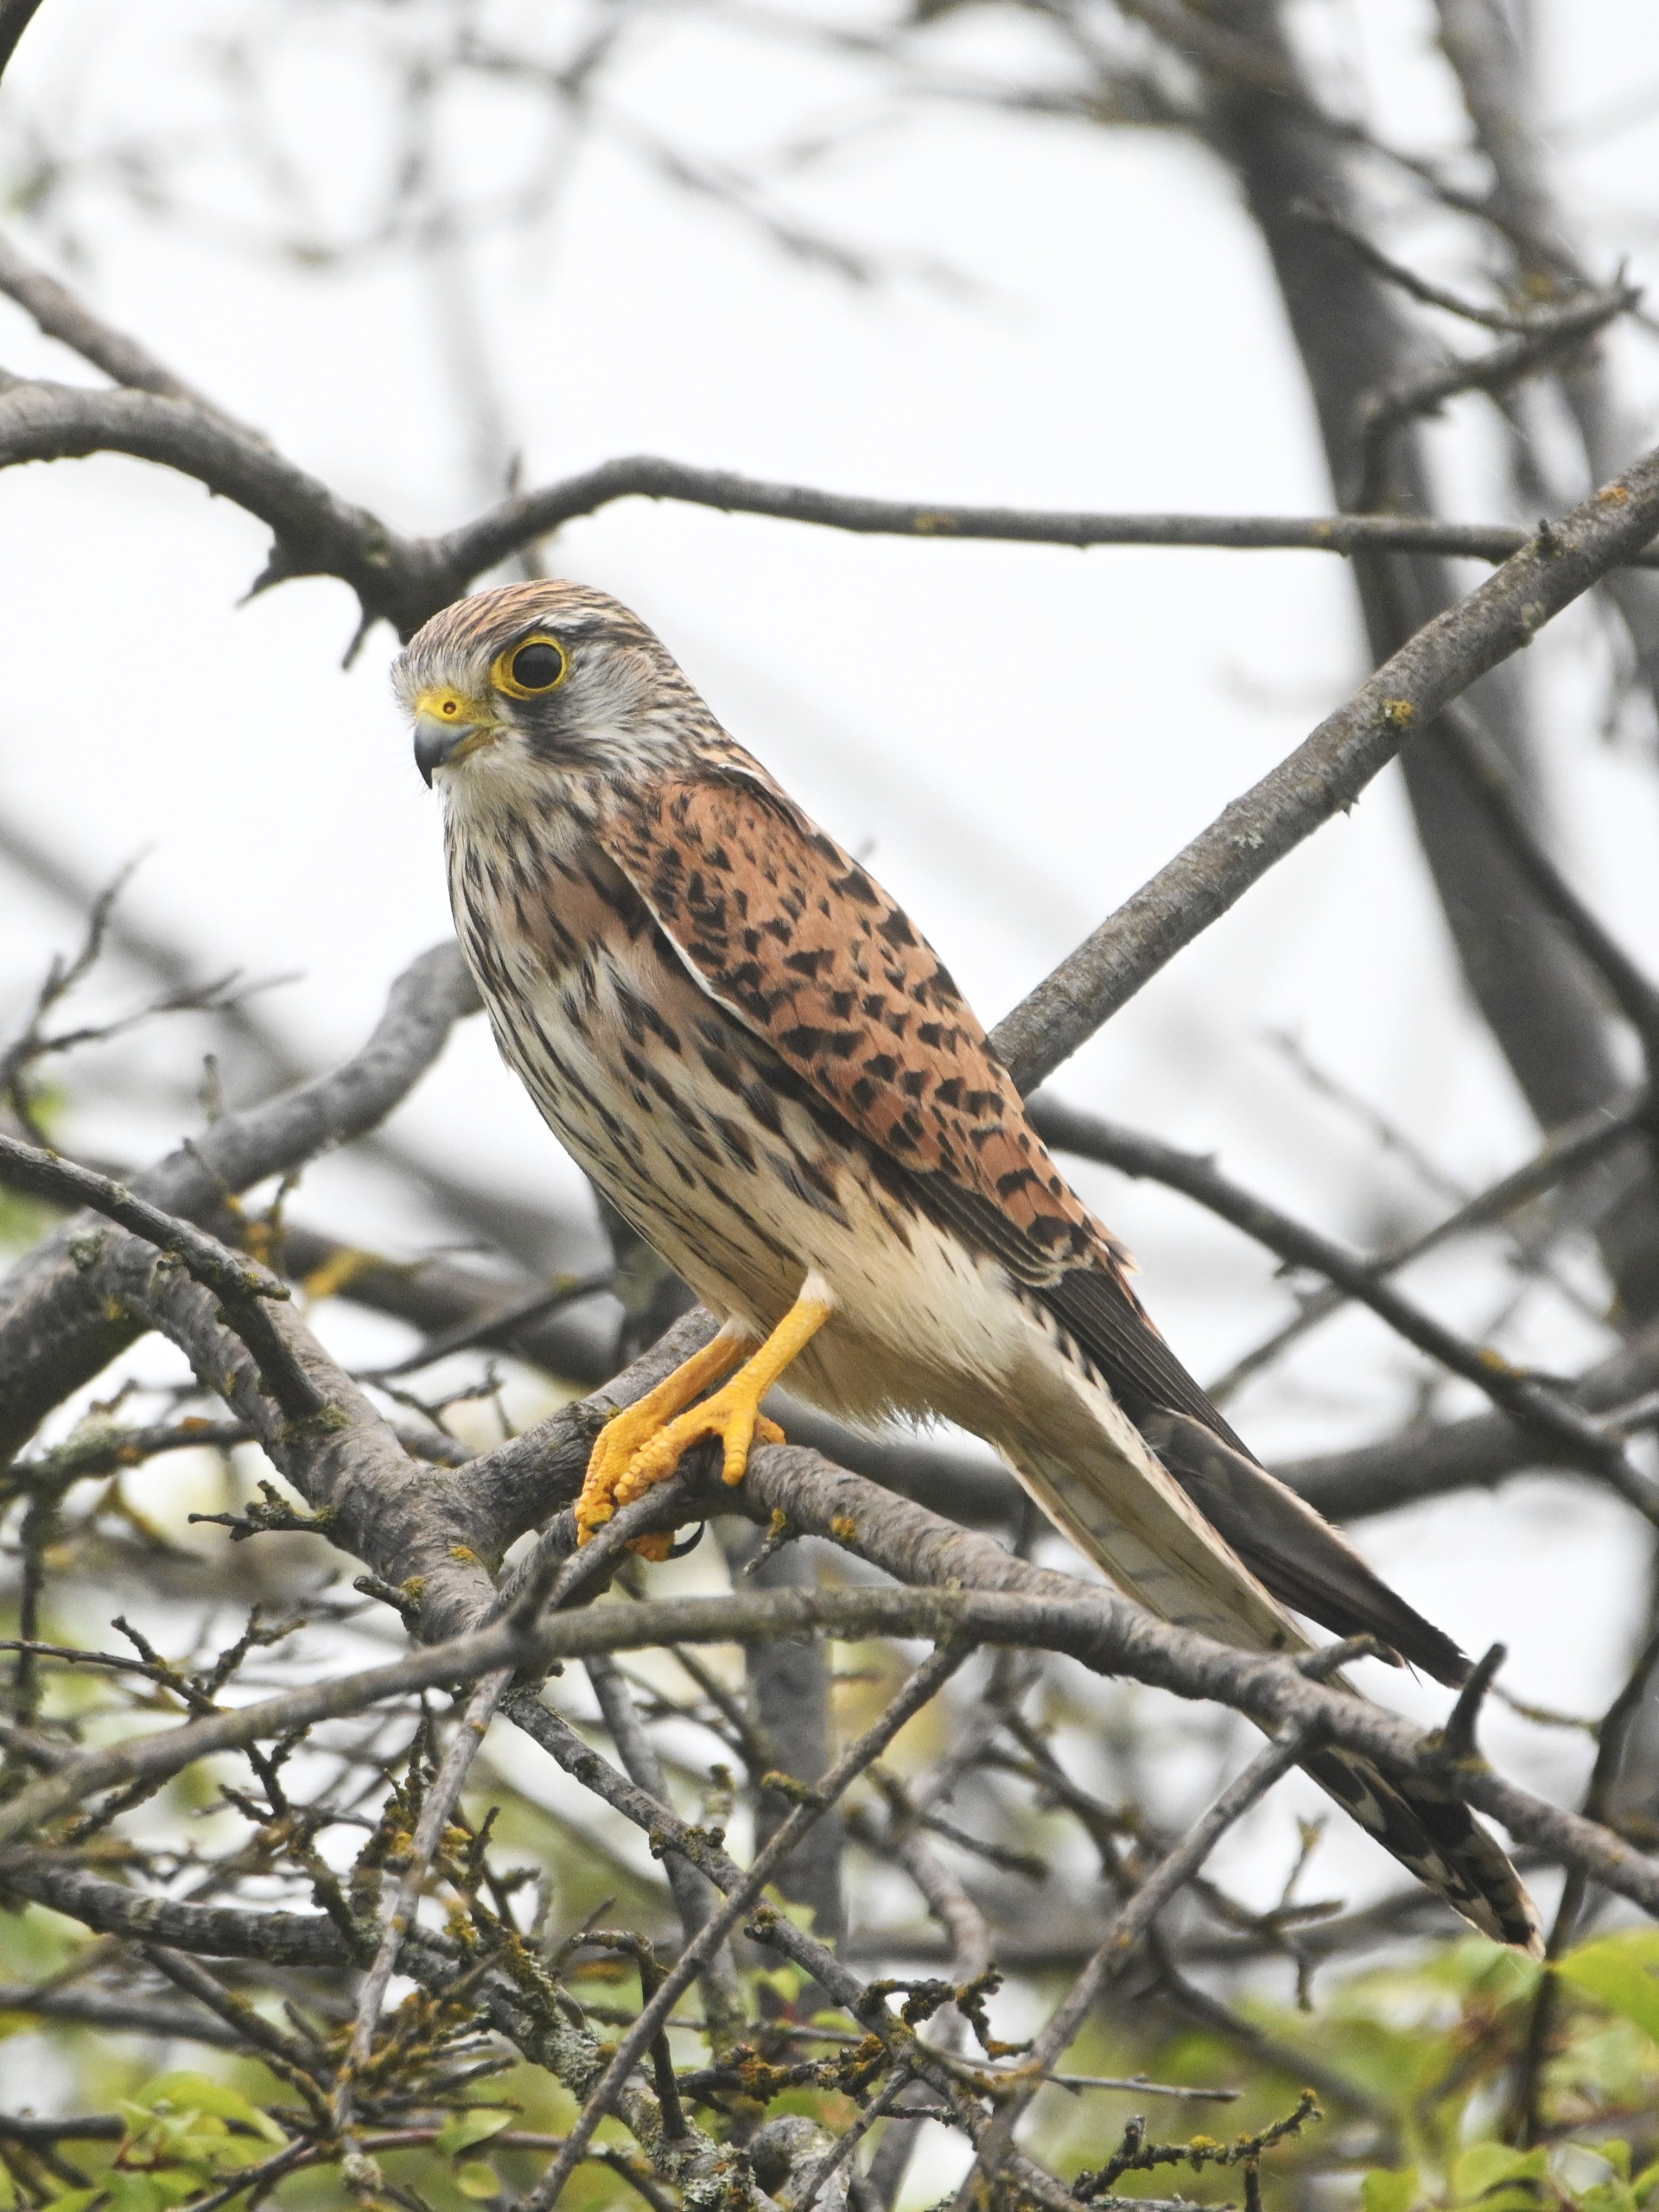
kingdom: Animalia
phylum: Chordata
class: Aves
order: Falconiformes
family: Falconidae
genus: Falco
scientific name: Falco tinnunculus
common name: Tårnfalk
